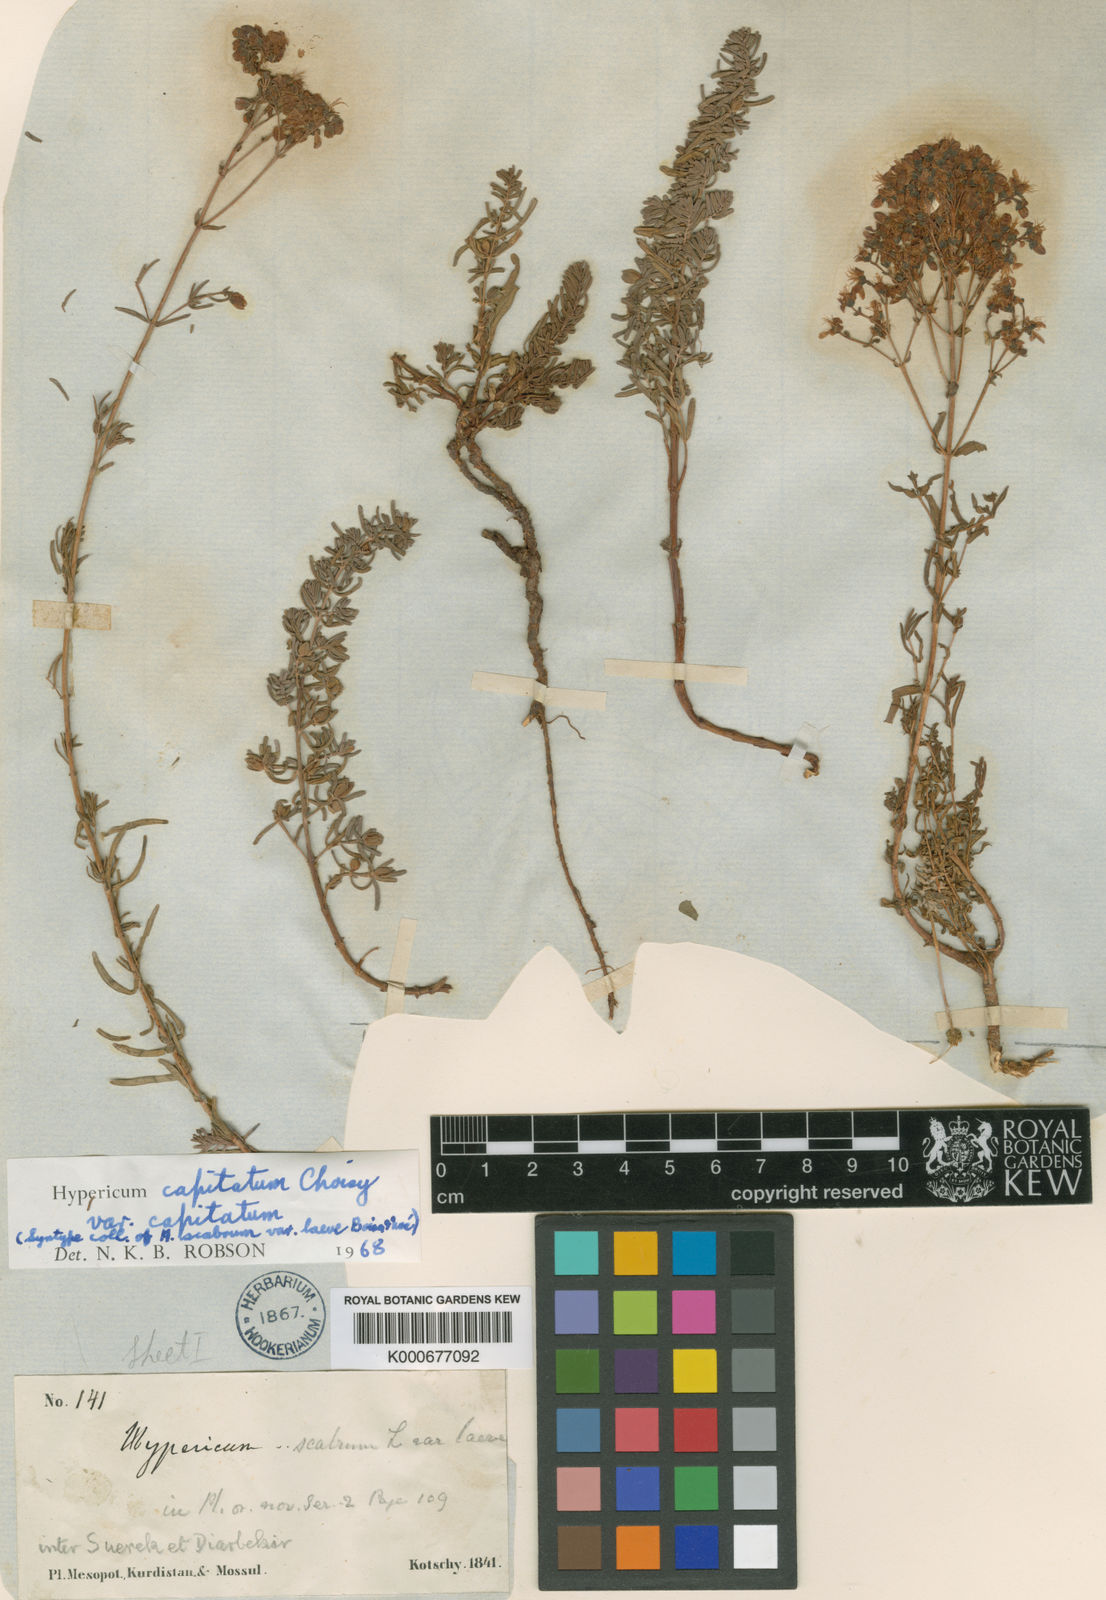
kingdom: Plantae
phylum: Tracheophyta
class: Magnoliopsida
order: Malpighiales
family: Hypericaceae
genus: Hypericum
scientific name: Hypericum capitatum
